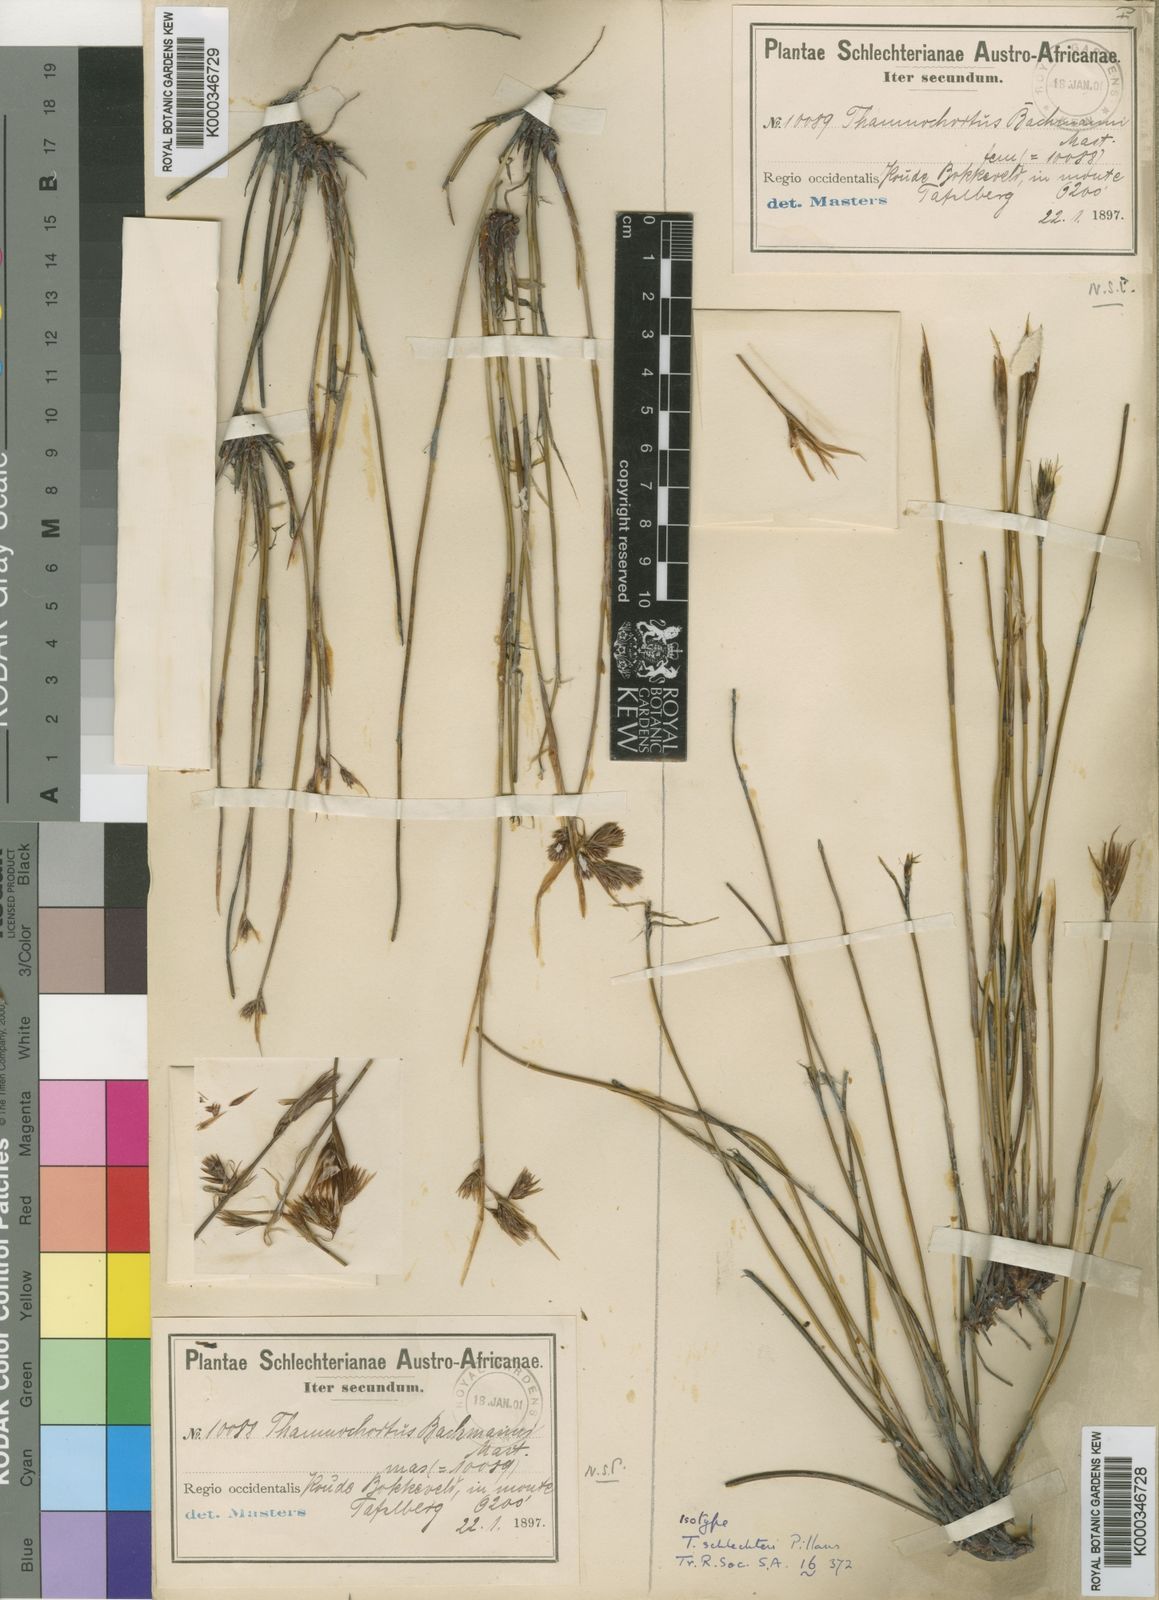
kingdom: Plantae
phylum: Tracheophyta
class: Liliopsida
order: Poales
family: Restionaceae
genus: Thamnochortus
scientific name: Thamnochortus schlechteri
